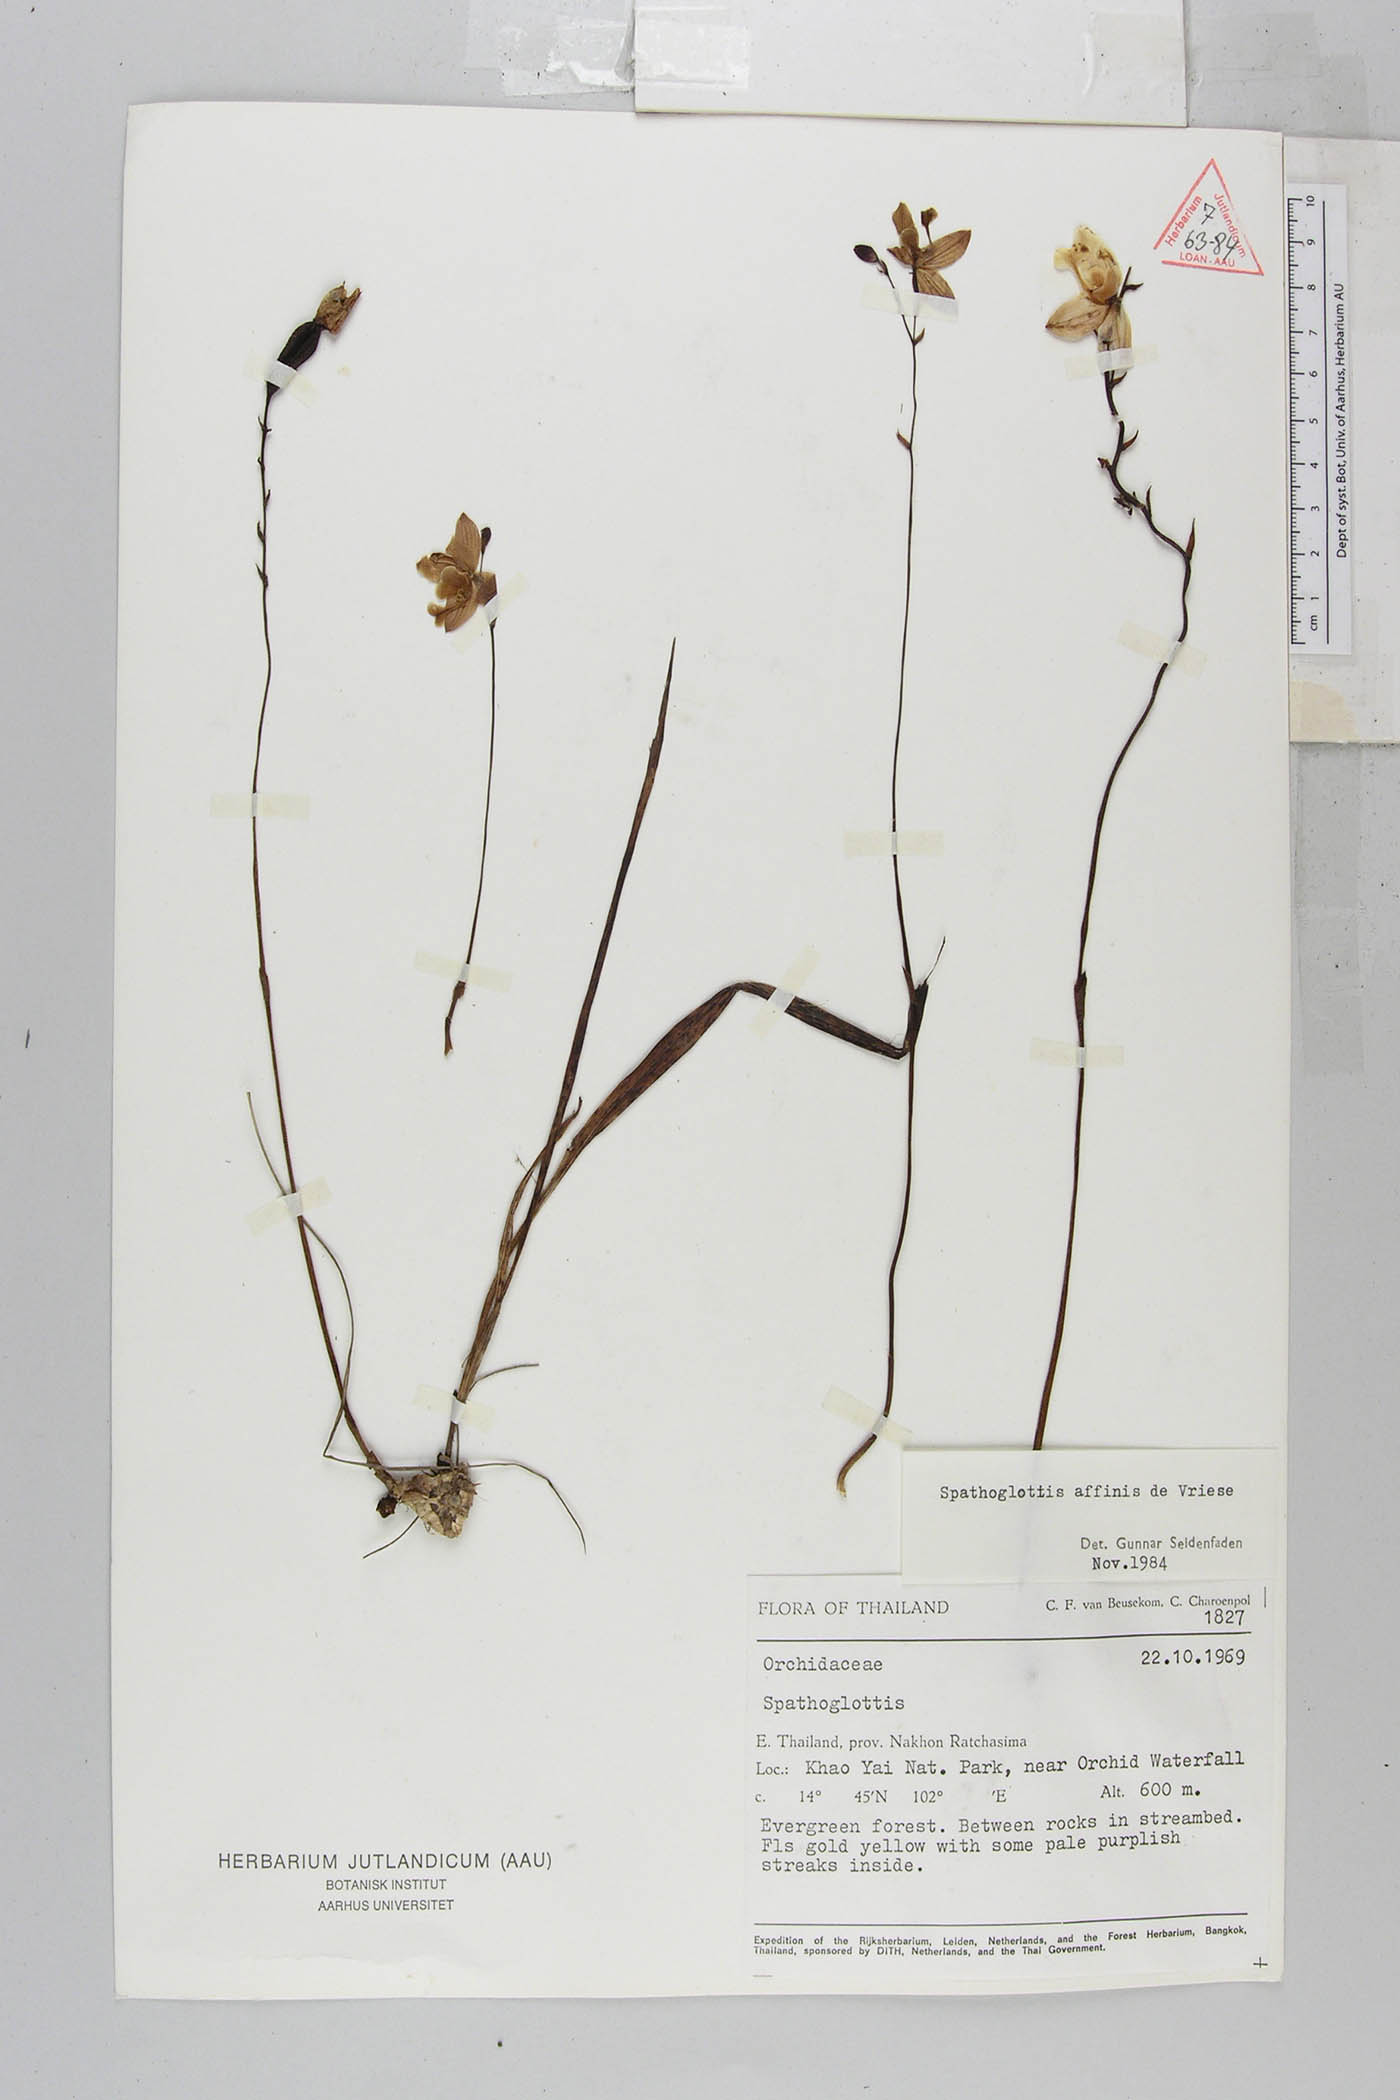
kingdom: Plantae
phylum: Tracheophyta
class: Liliopsida
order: Asparagales
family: Orchidaceae
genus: Spathoglottis
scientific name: Spathoglottis affinis
